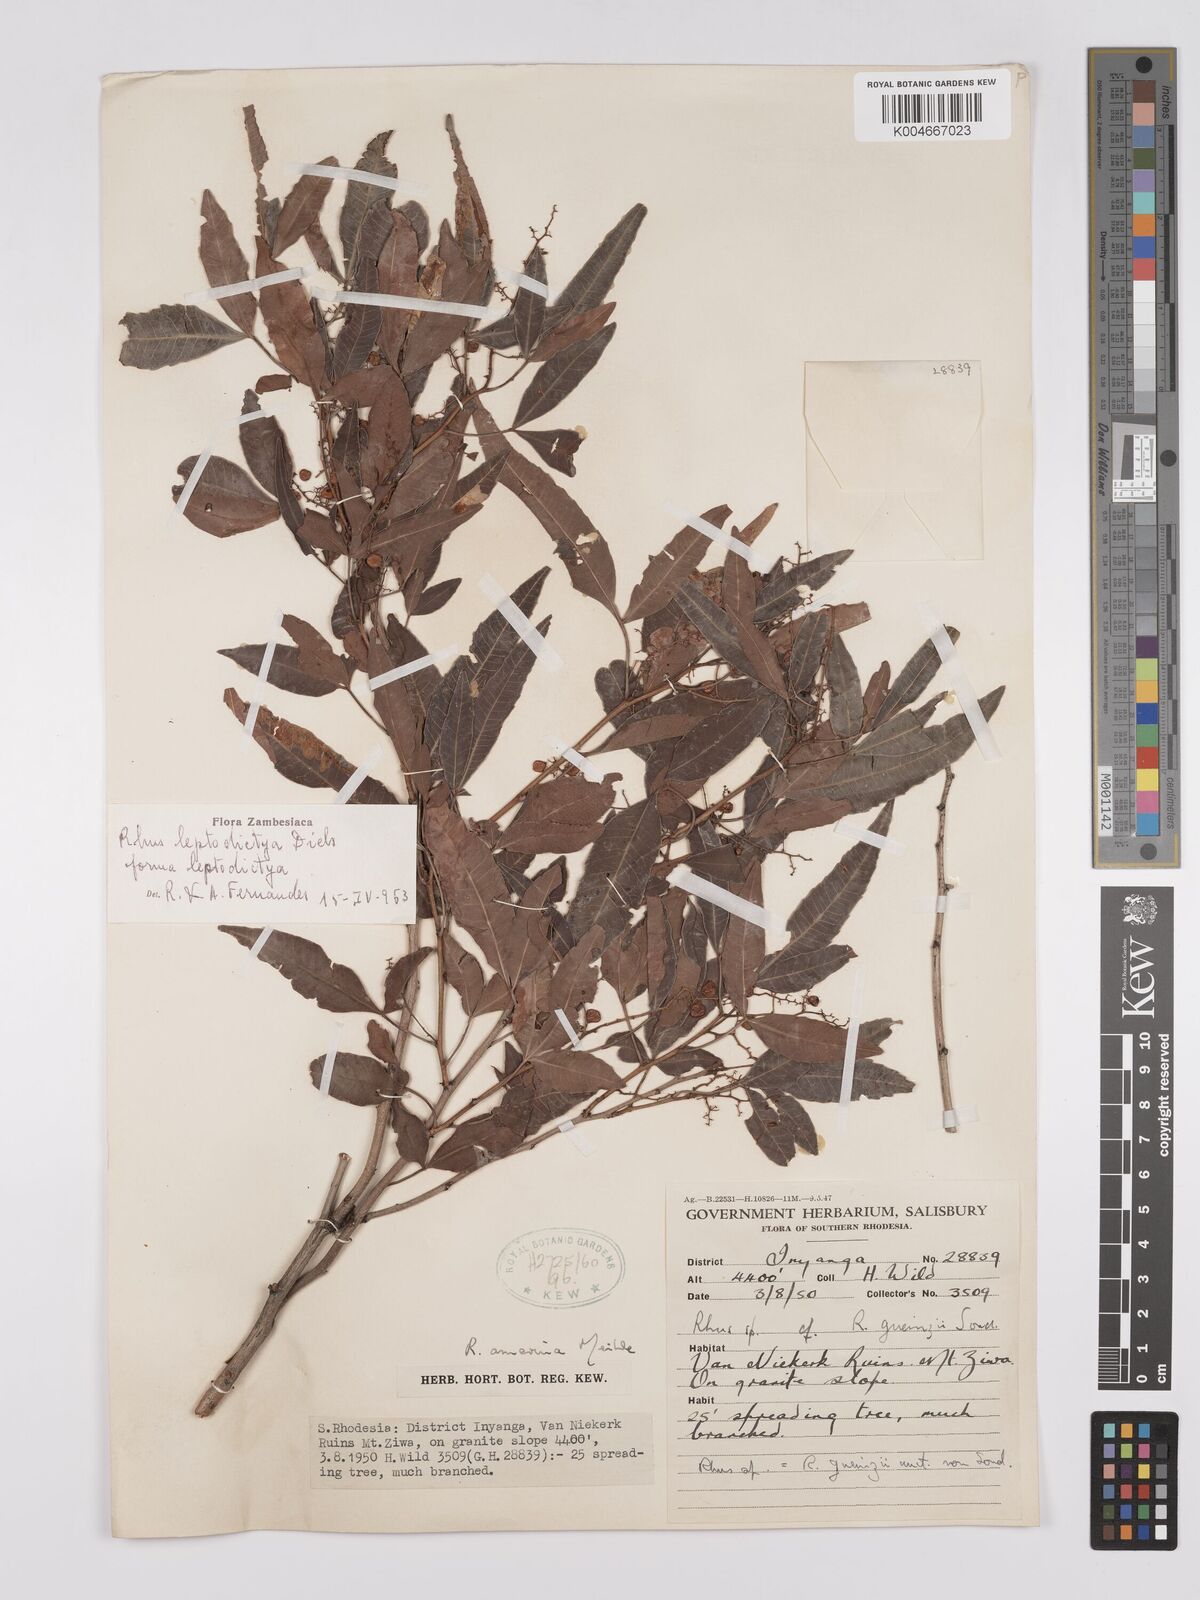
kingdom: Plantae
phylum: Tracheophyta
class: Magnoliopsida
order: Sapindales
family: Anacardiaceae
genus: Searsia
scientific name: Searsia leptodictya
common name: Mountain karee
